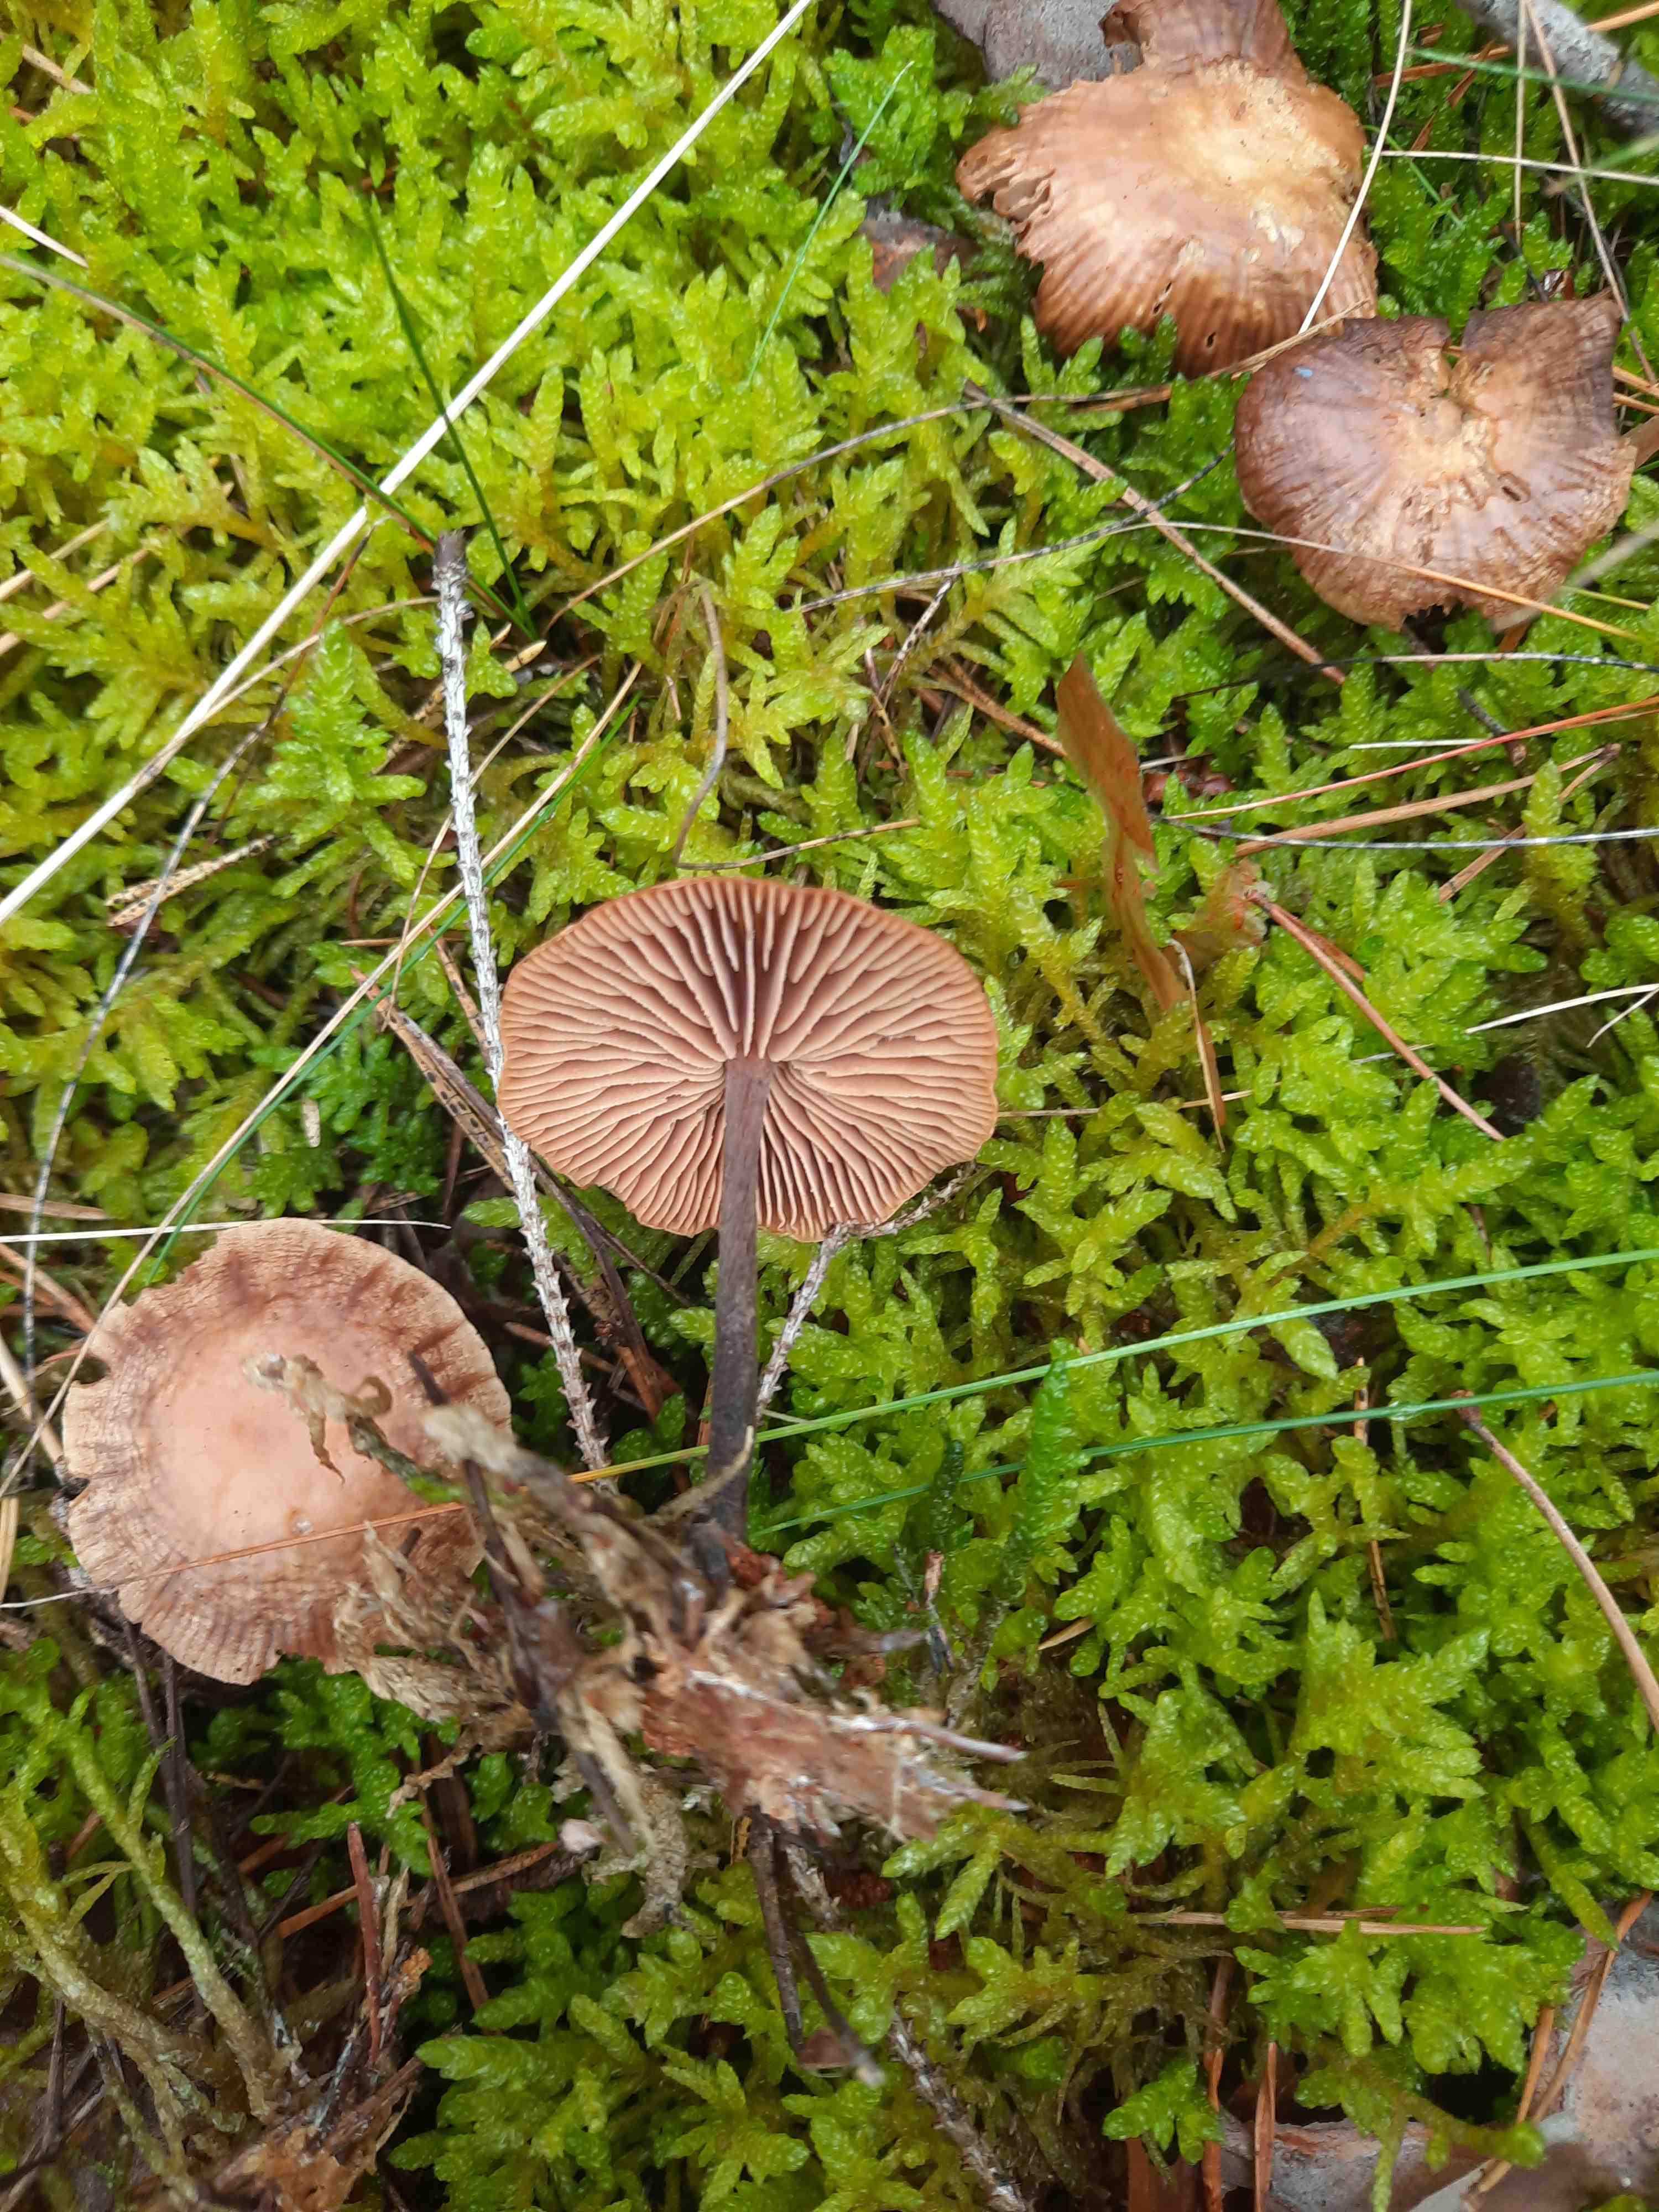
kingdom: Fungi
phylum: Basidiomycota
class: Agaricomycetes
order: Agaricales
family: Omphalotaceae
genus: Collybiopsis
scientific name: Collybiopsis peronata
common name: bestøvlet fladhat
